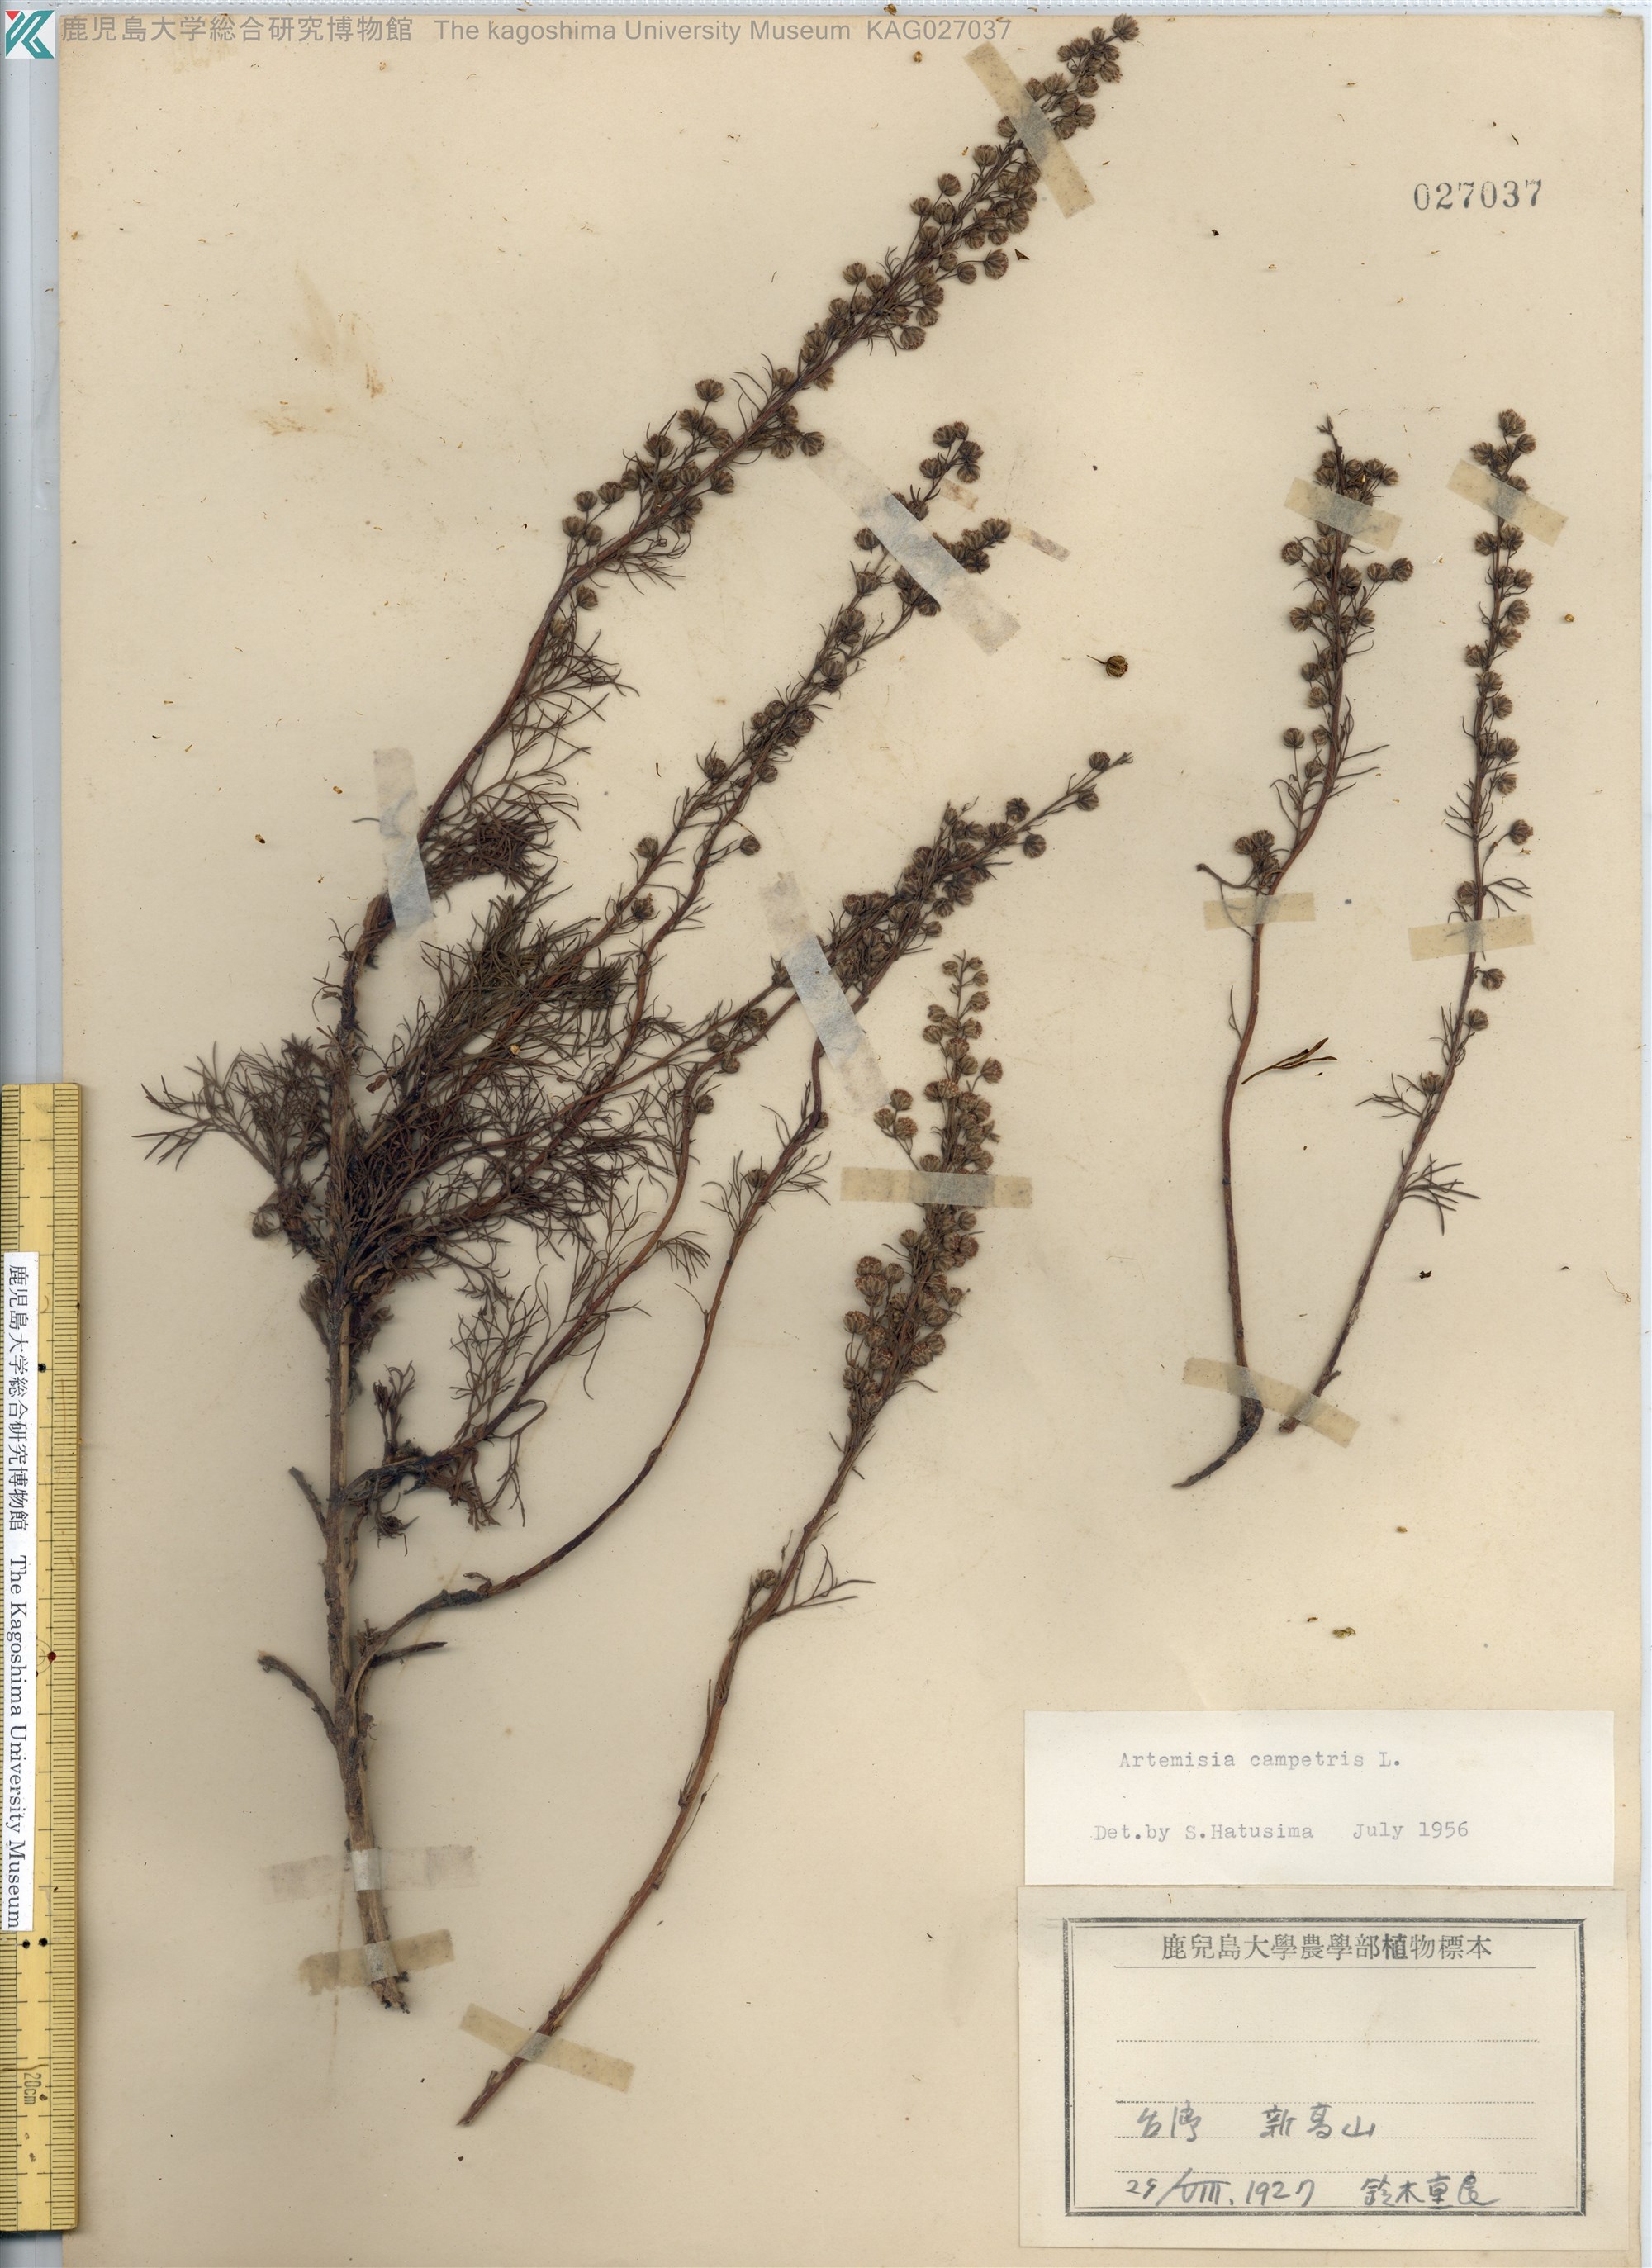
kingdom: Plantae
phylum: Tracheophyta
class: Magnoliopsida
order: Asterales
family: Asteraceae
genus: Artemisia
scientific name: Artemisia morrisonensis
